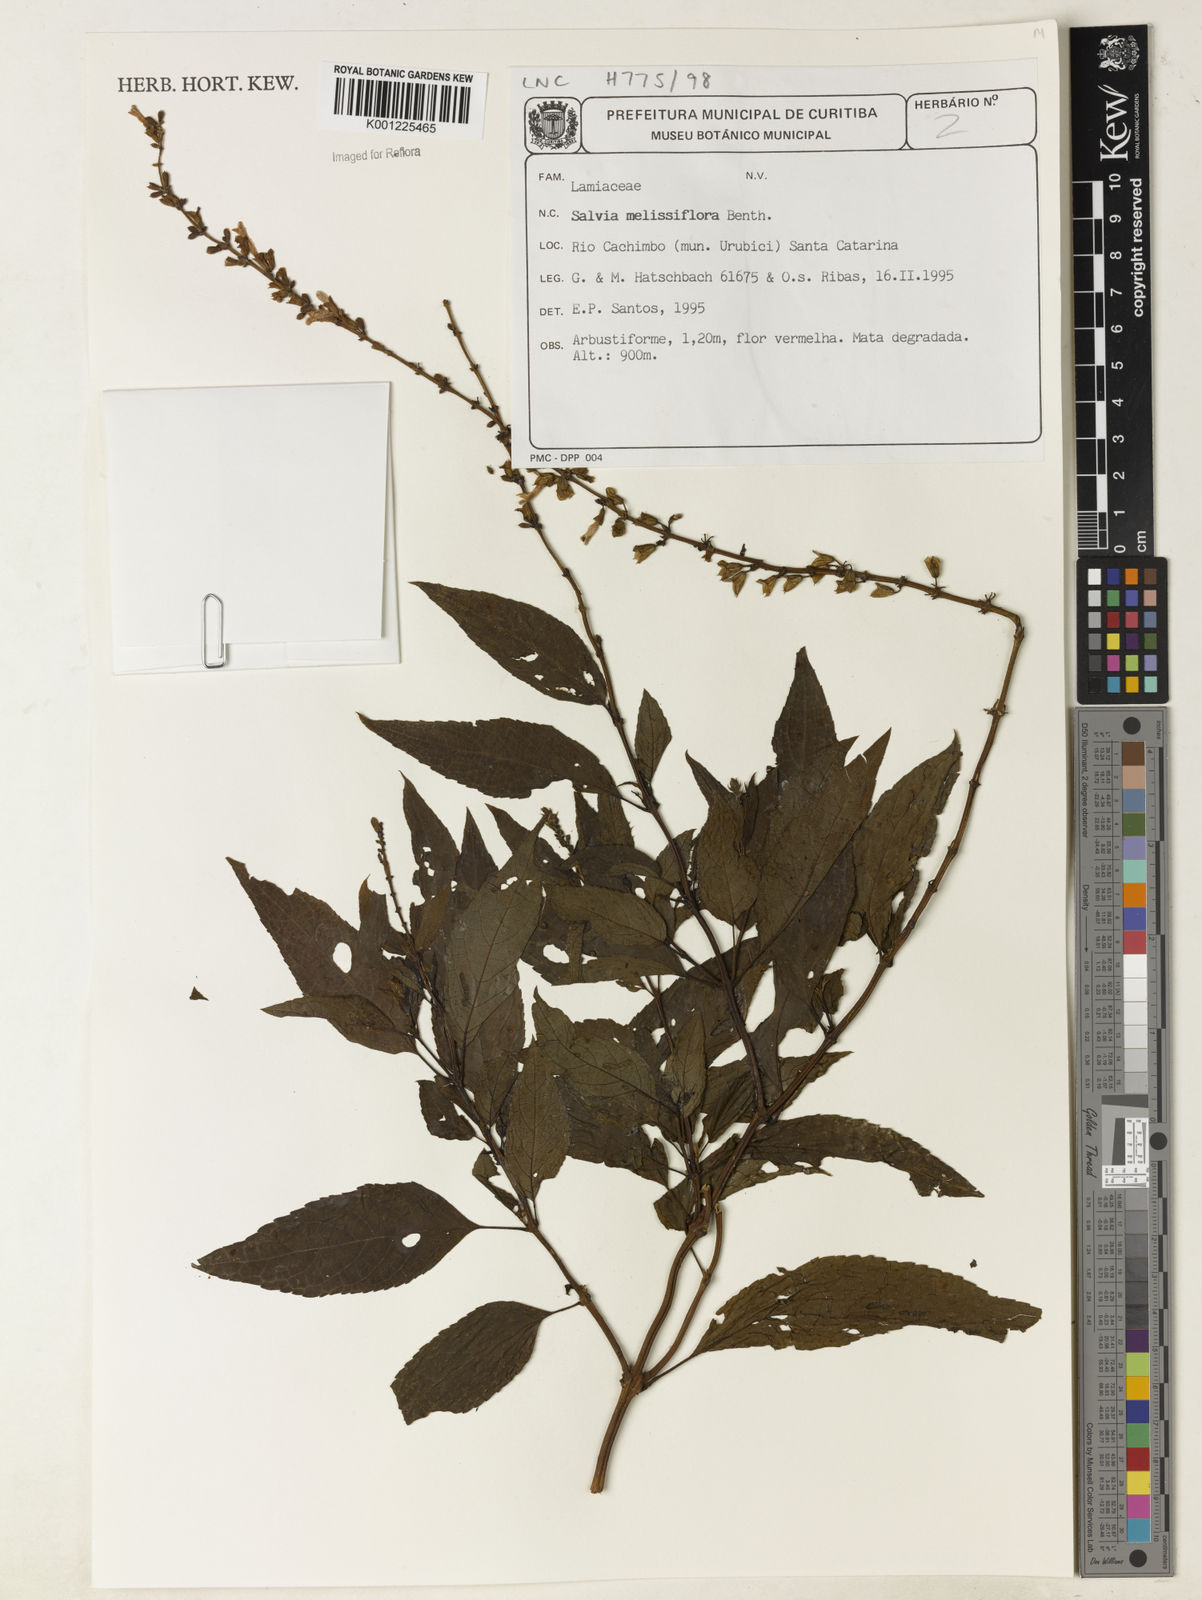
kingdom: Plantae
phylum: Tracheophyta
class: Magnoliopsida
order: Lamiales
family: Lamiaceae
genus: Salvia
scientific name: Salvia melissiflora
